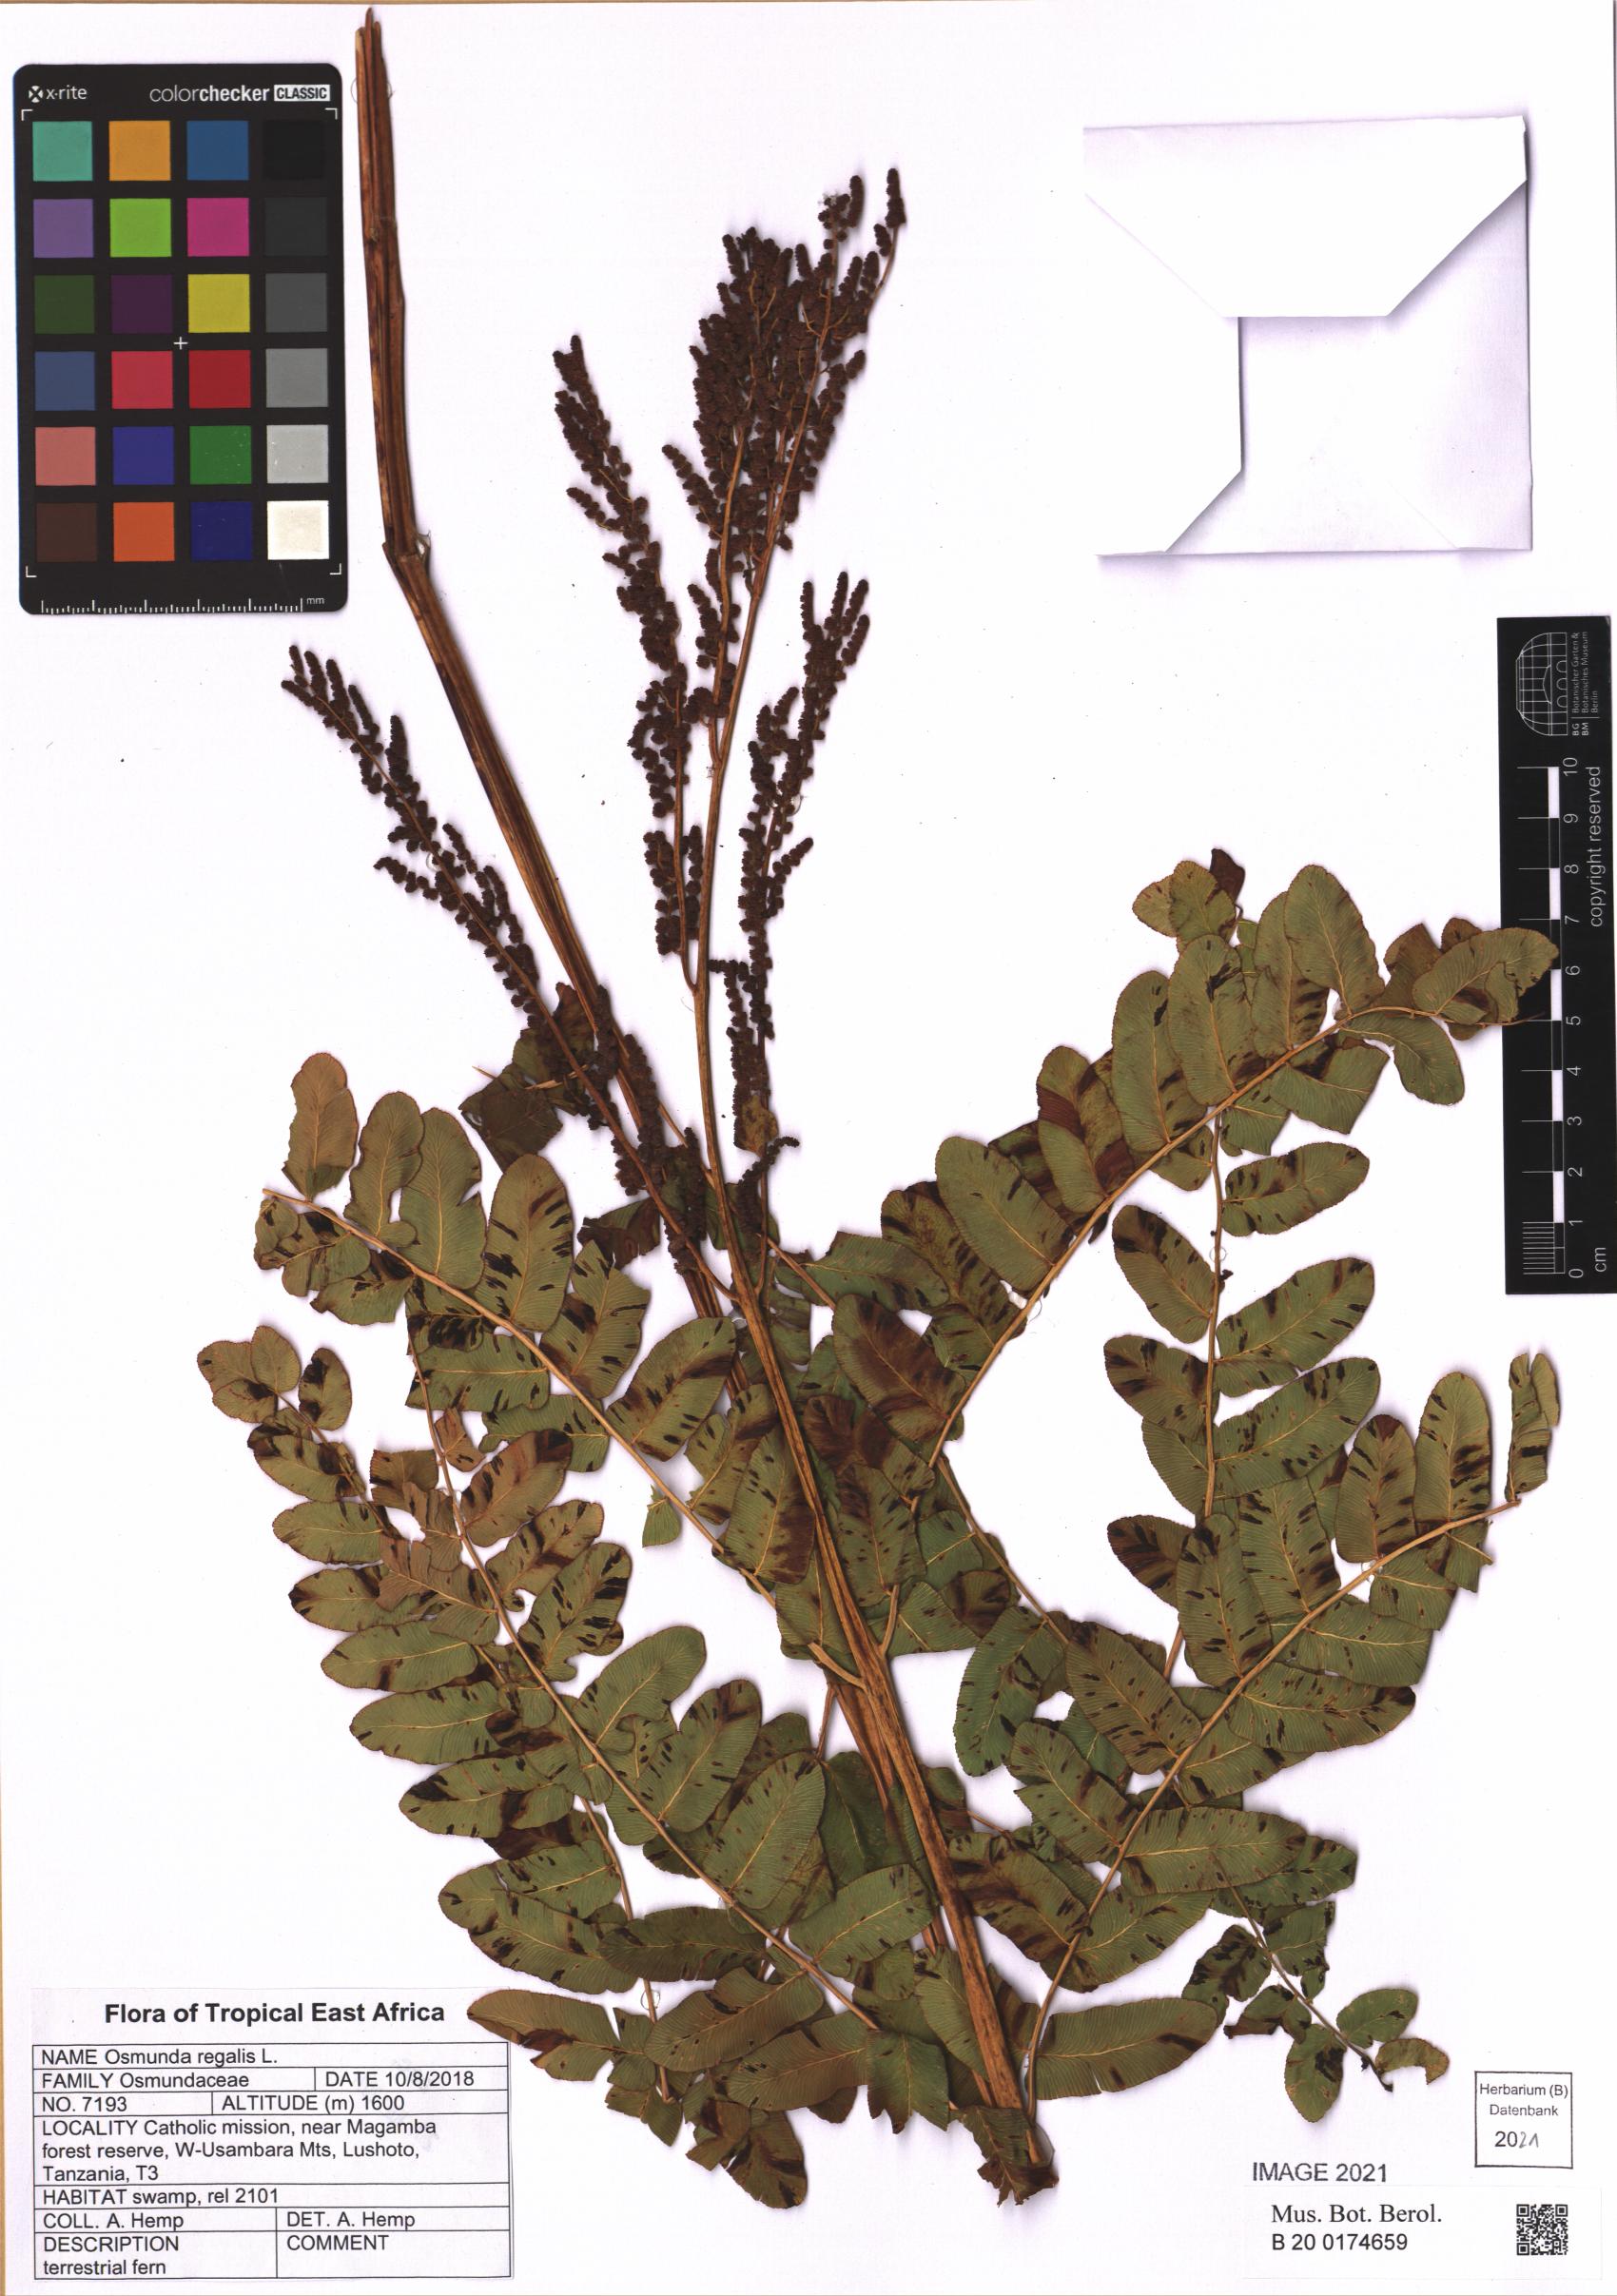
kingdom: Plantae
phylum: Tracheophyta
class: Polypodiopsida
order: Osmundales
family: Osmundaceae
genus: Osmunda
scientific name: Osmunda regalis
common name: Royal fern
